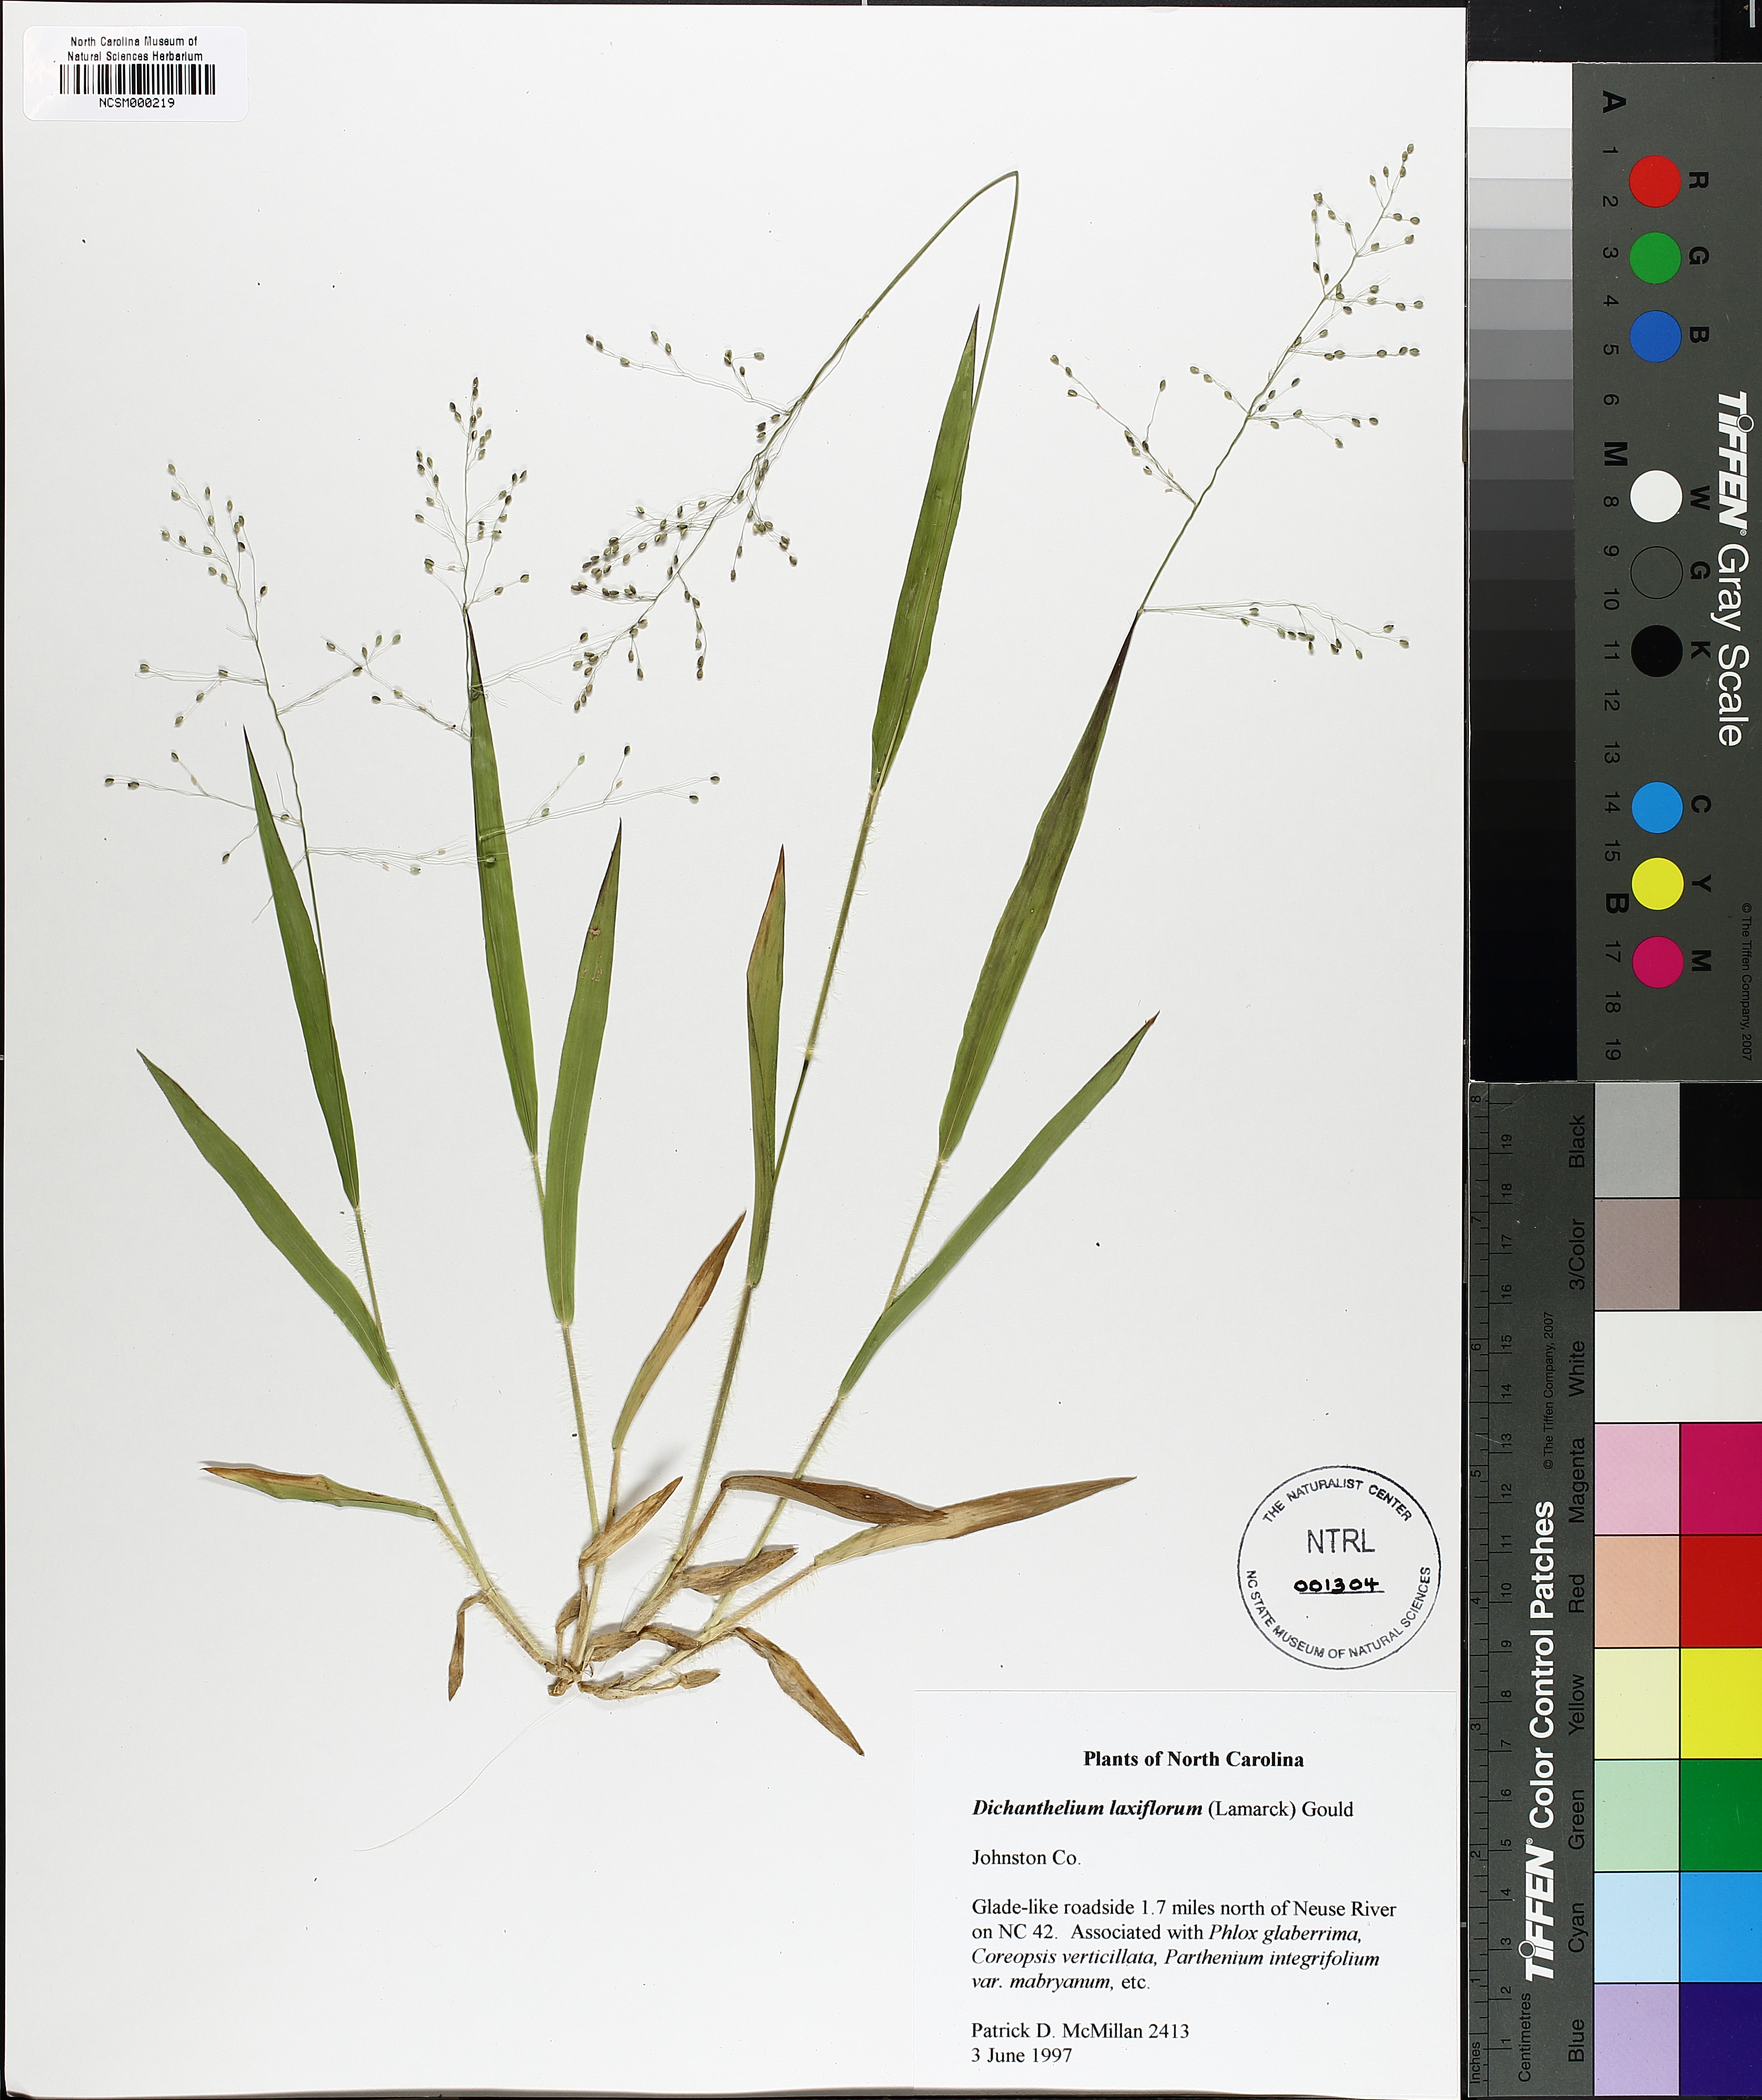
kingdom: Plantae
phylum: Tracheophyta
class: Liliopsida
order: Poales
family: Poaceae
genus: Dichanthelium
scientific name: Dichanthelium laxiflorum
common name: Soft-tuft panic grass
